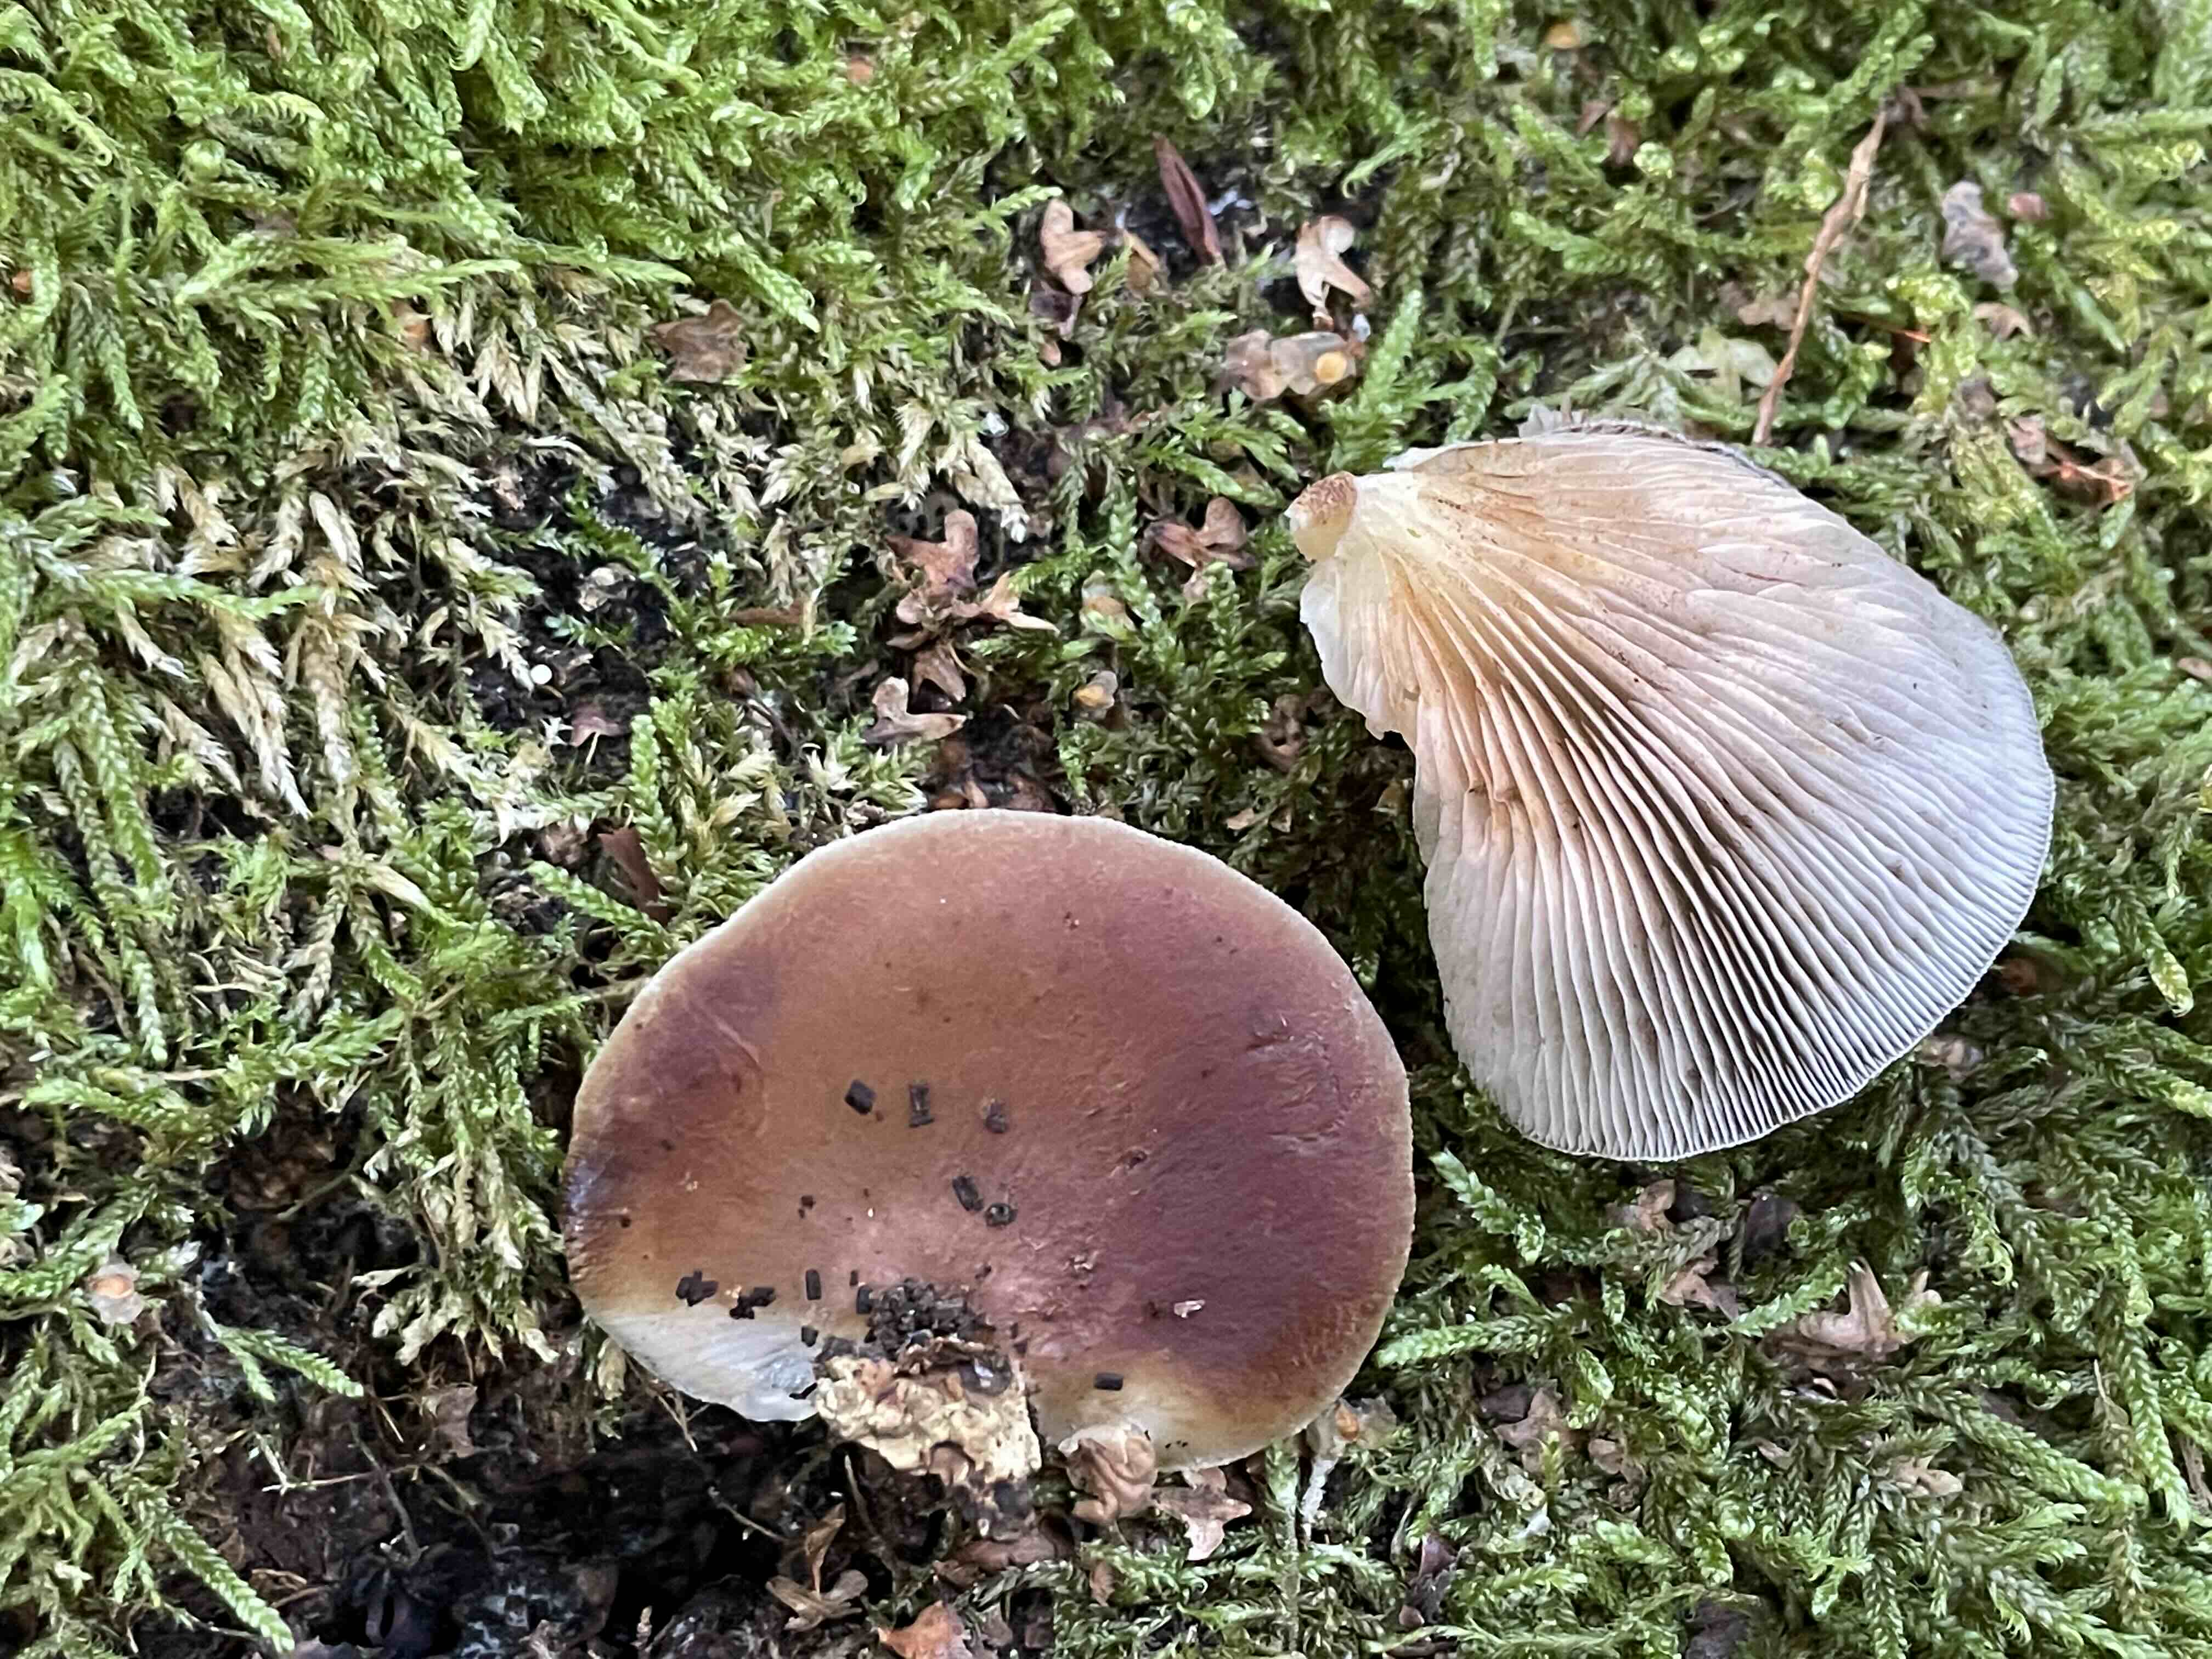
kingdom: Fungi
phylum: Basidiomycota
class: Agaricomycetes
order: Agaricales
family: Crepidotaceae
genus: Crepidotus
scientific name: Crepidotus mollis
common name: blød muslingesvamp
